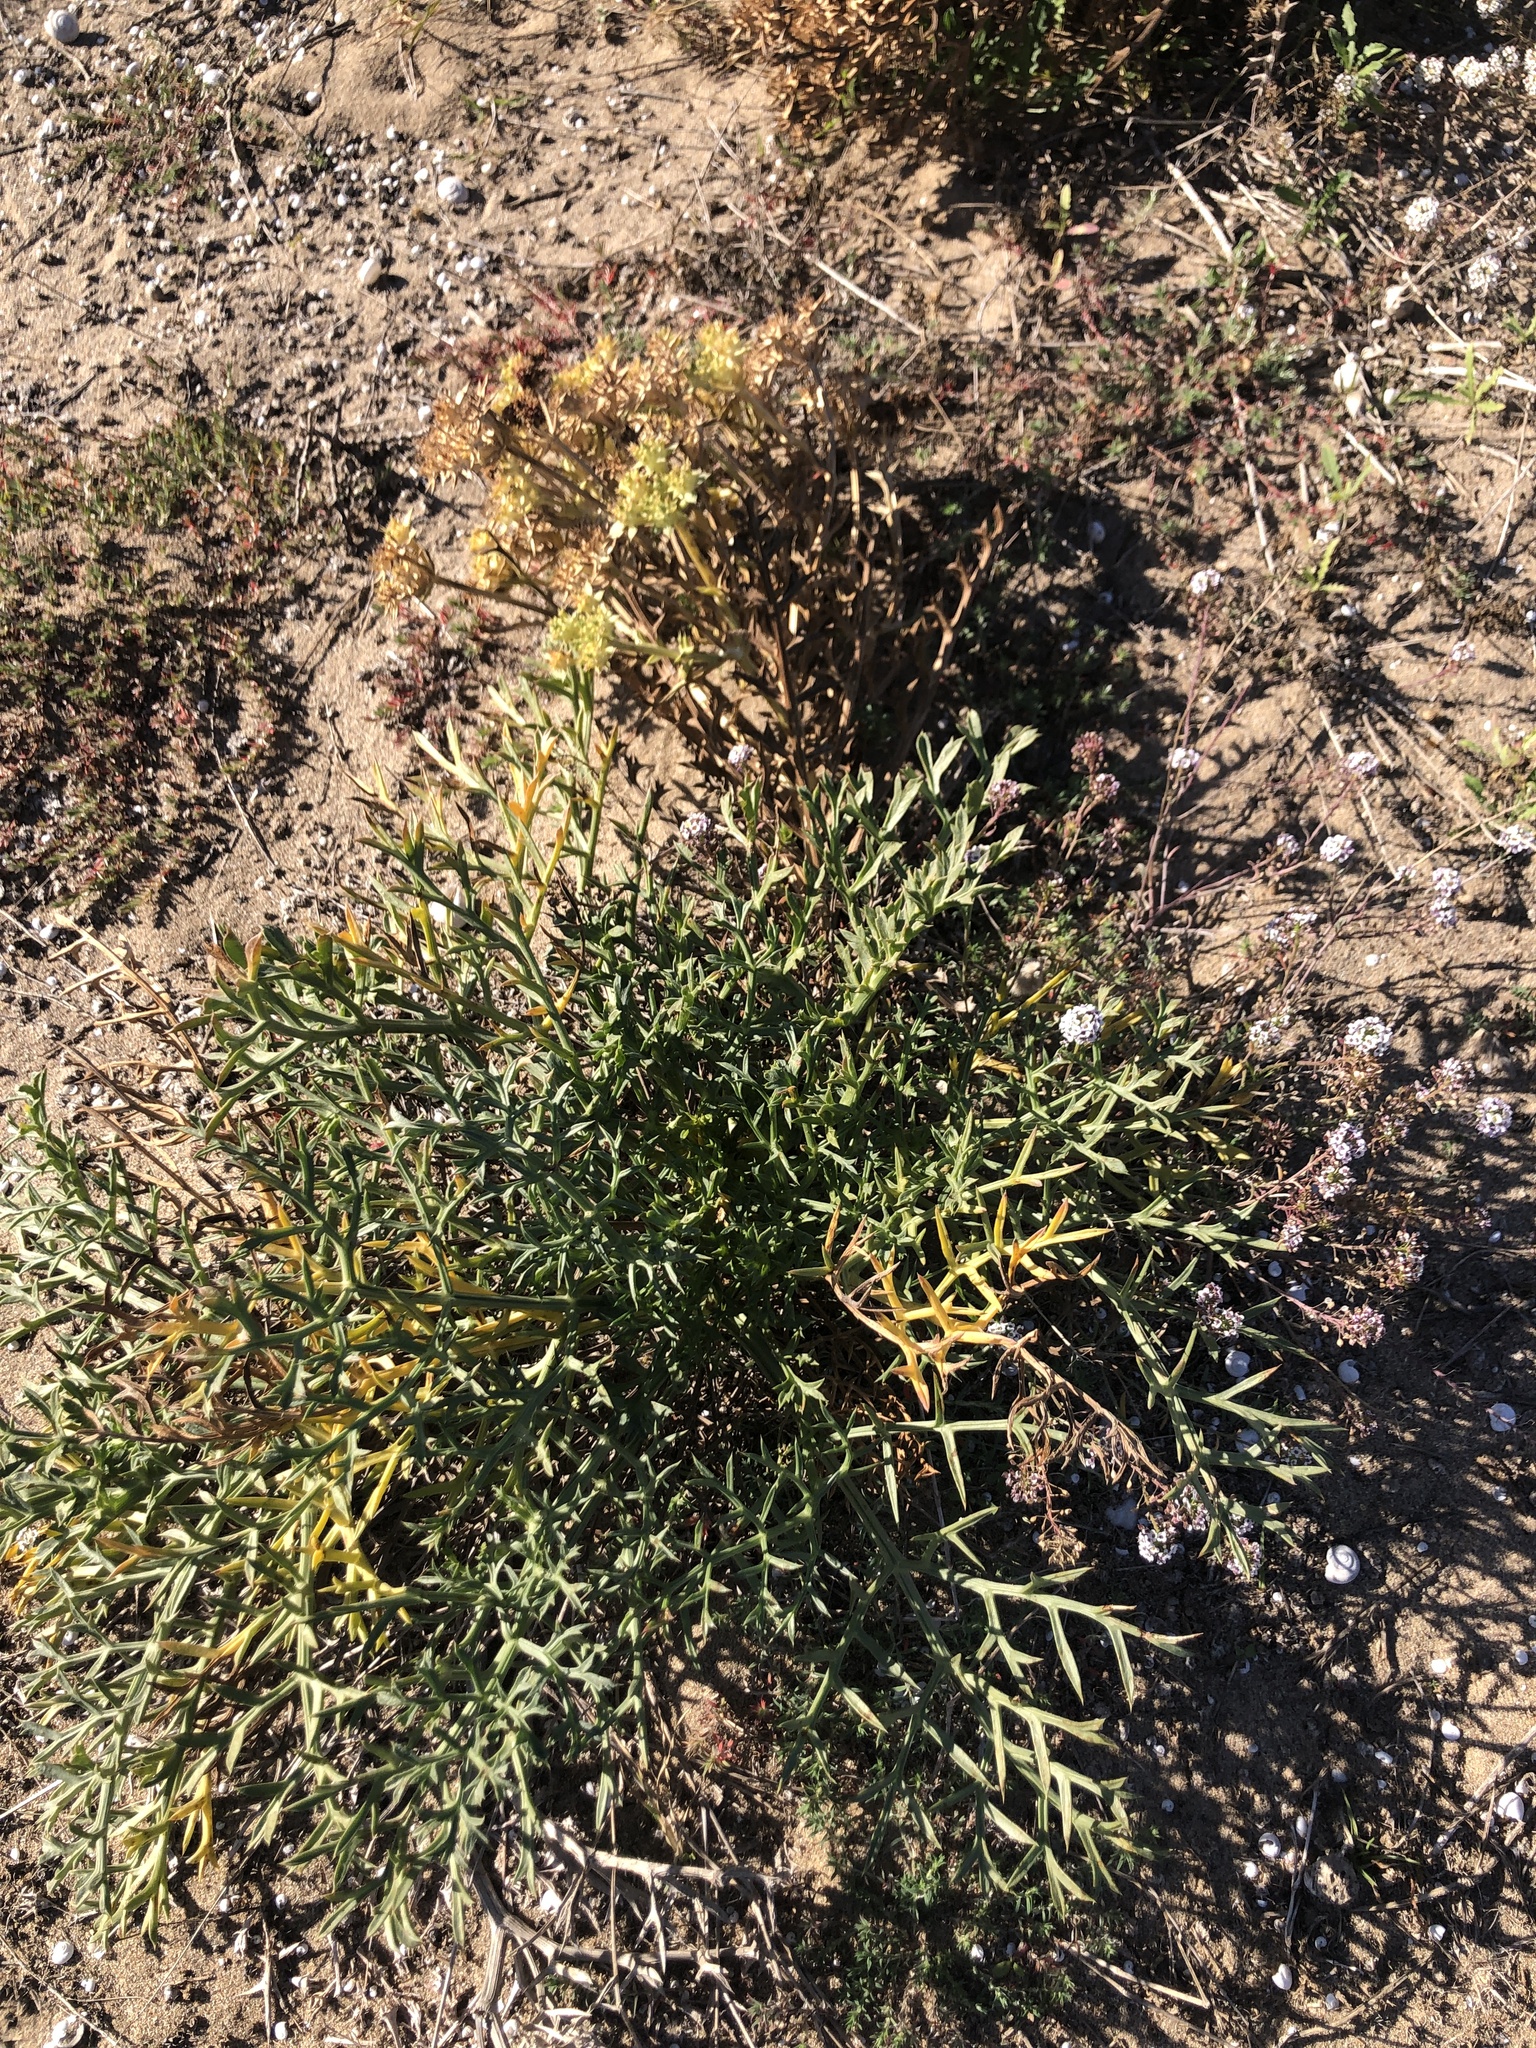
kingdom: Plantae
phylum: Tracheophyta
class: Magnoliopsida
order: Apiales
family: Apiaceae
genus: Echinophora
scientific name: Echinophora spinosa
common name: Prickly samphire
